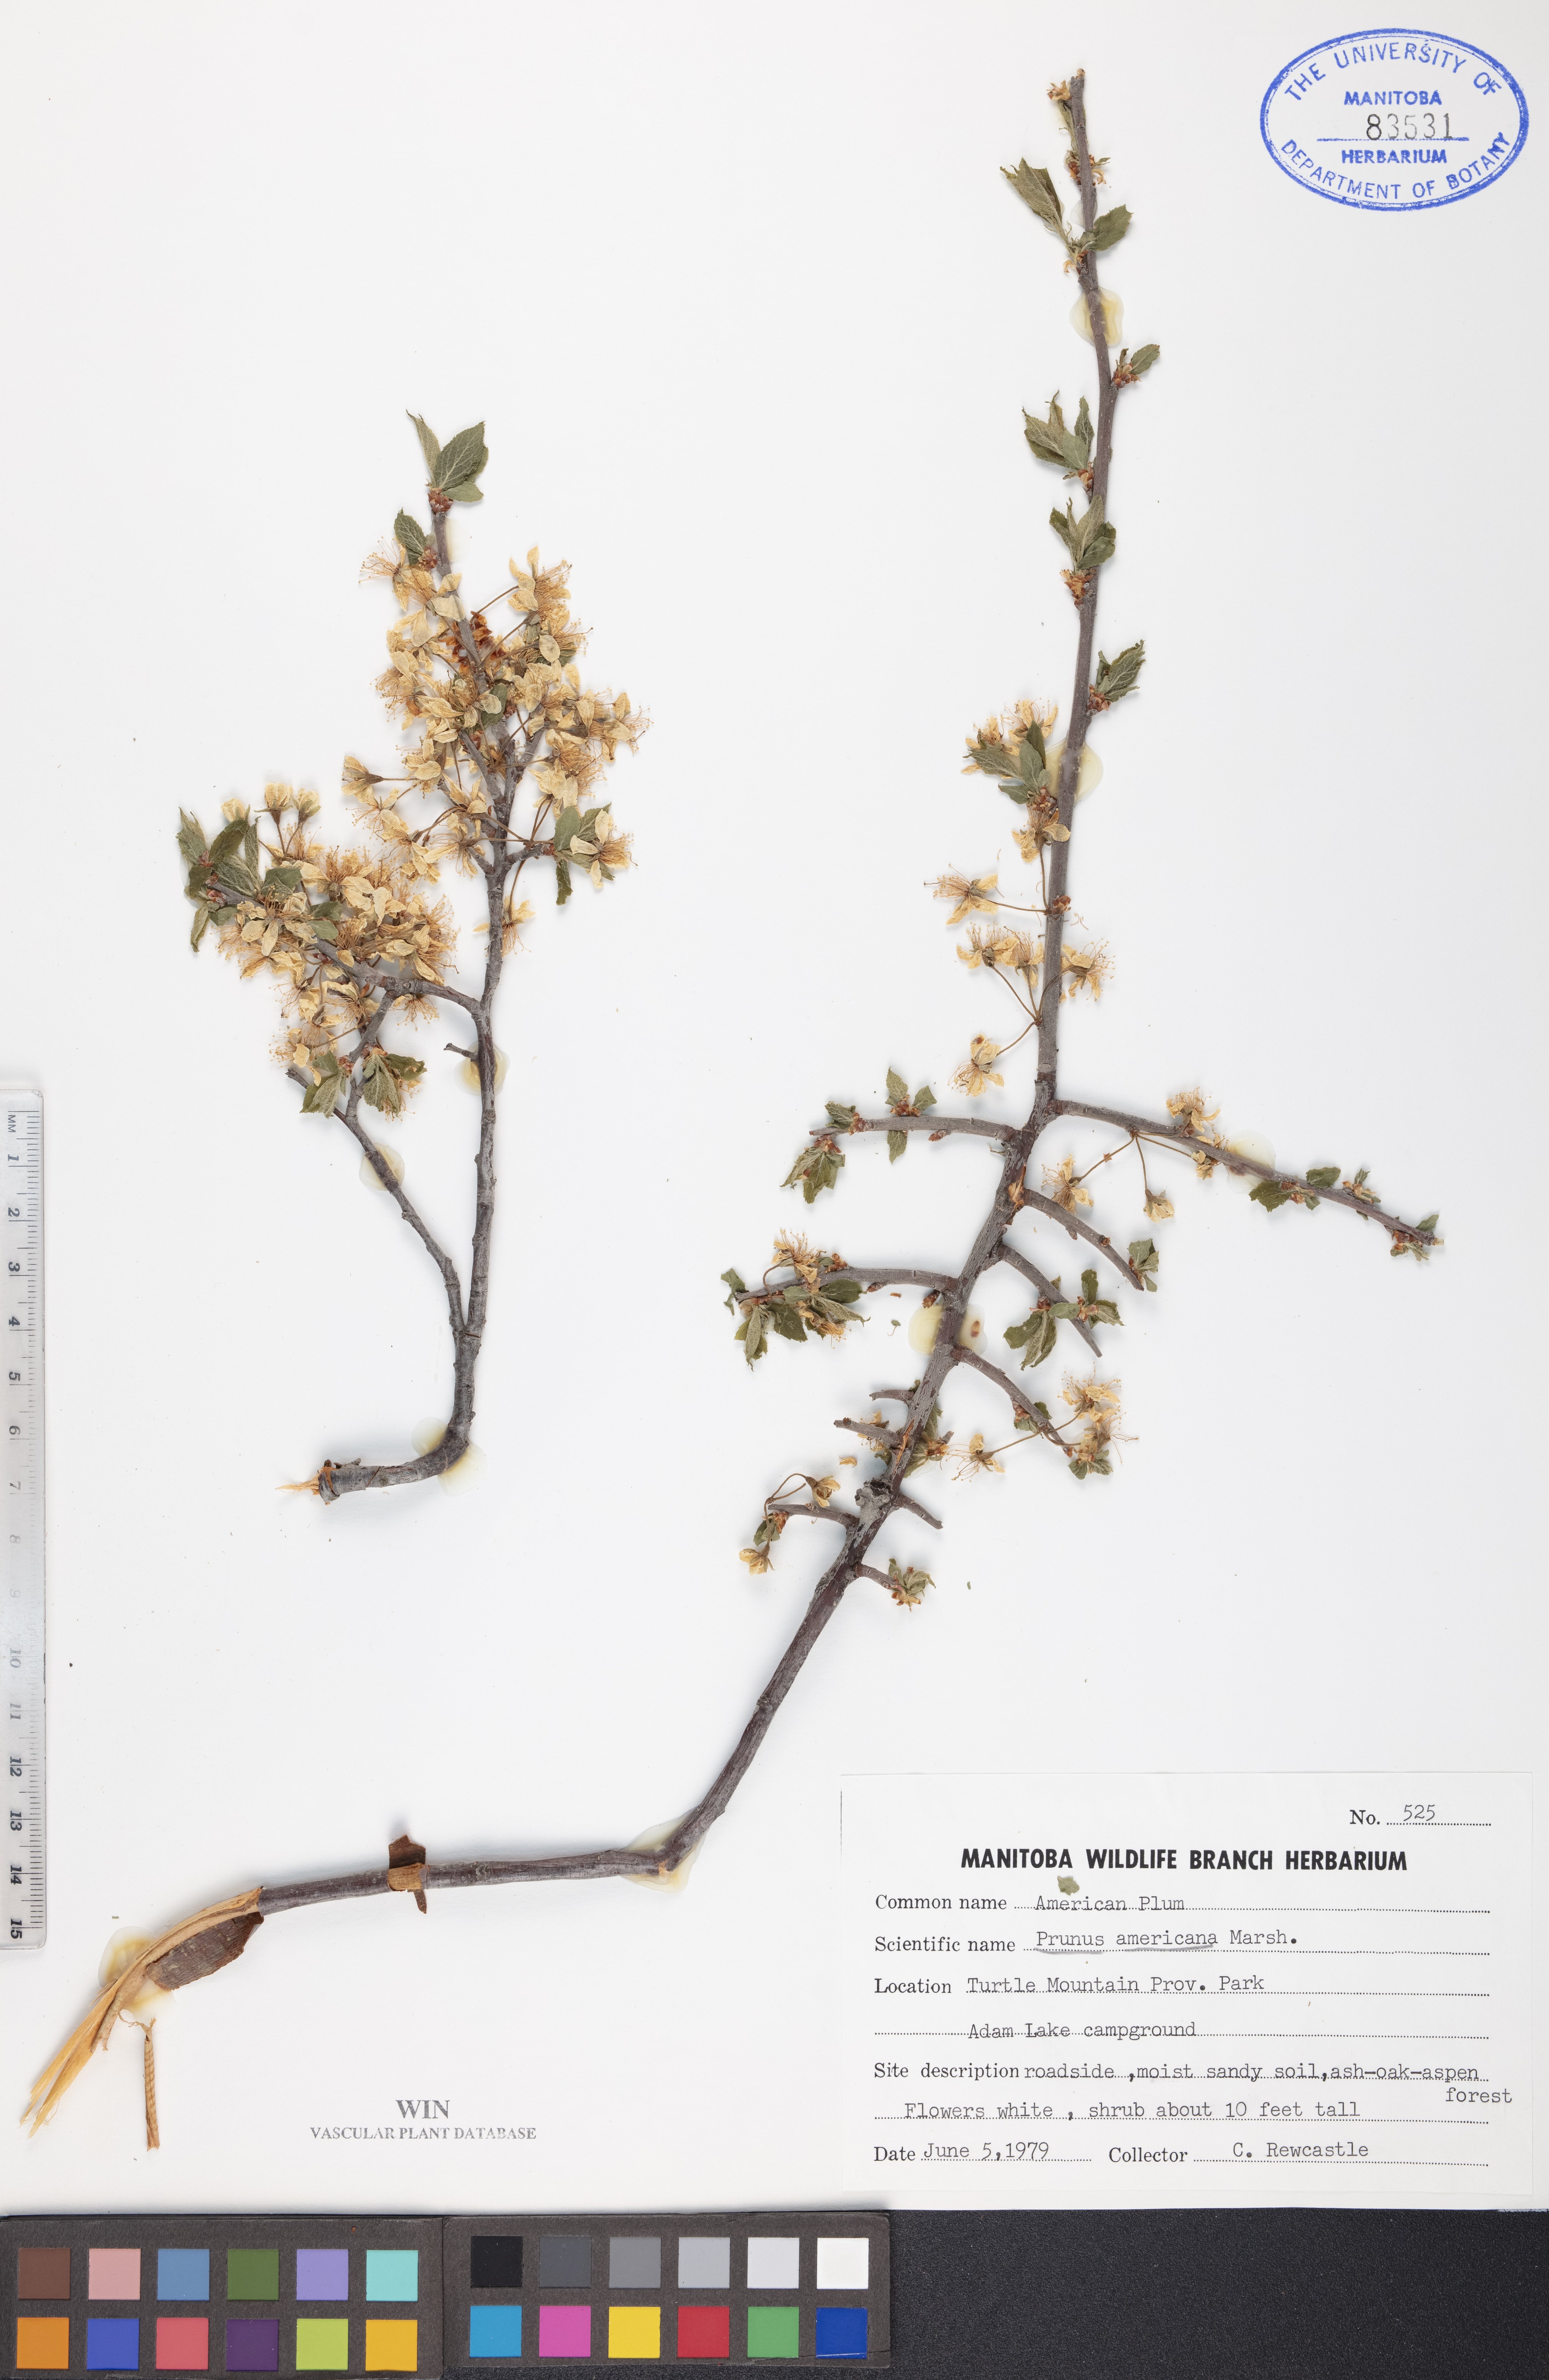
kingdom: Plantae
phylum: Tracheophyta
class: Magnoliopsida
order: Rosales
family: Rosaceae
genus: Prunus
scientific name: Prunus americana
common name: American plum
